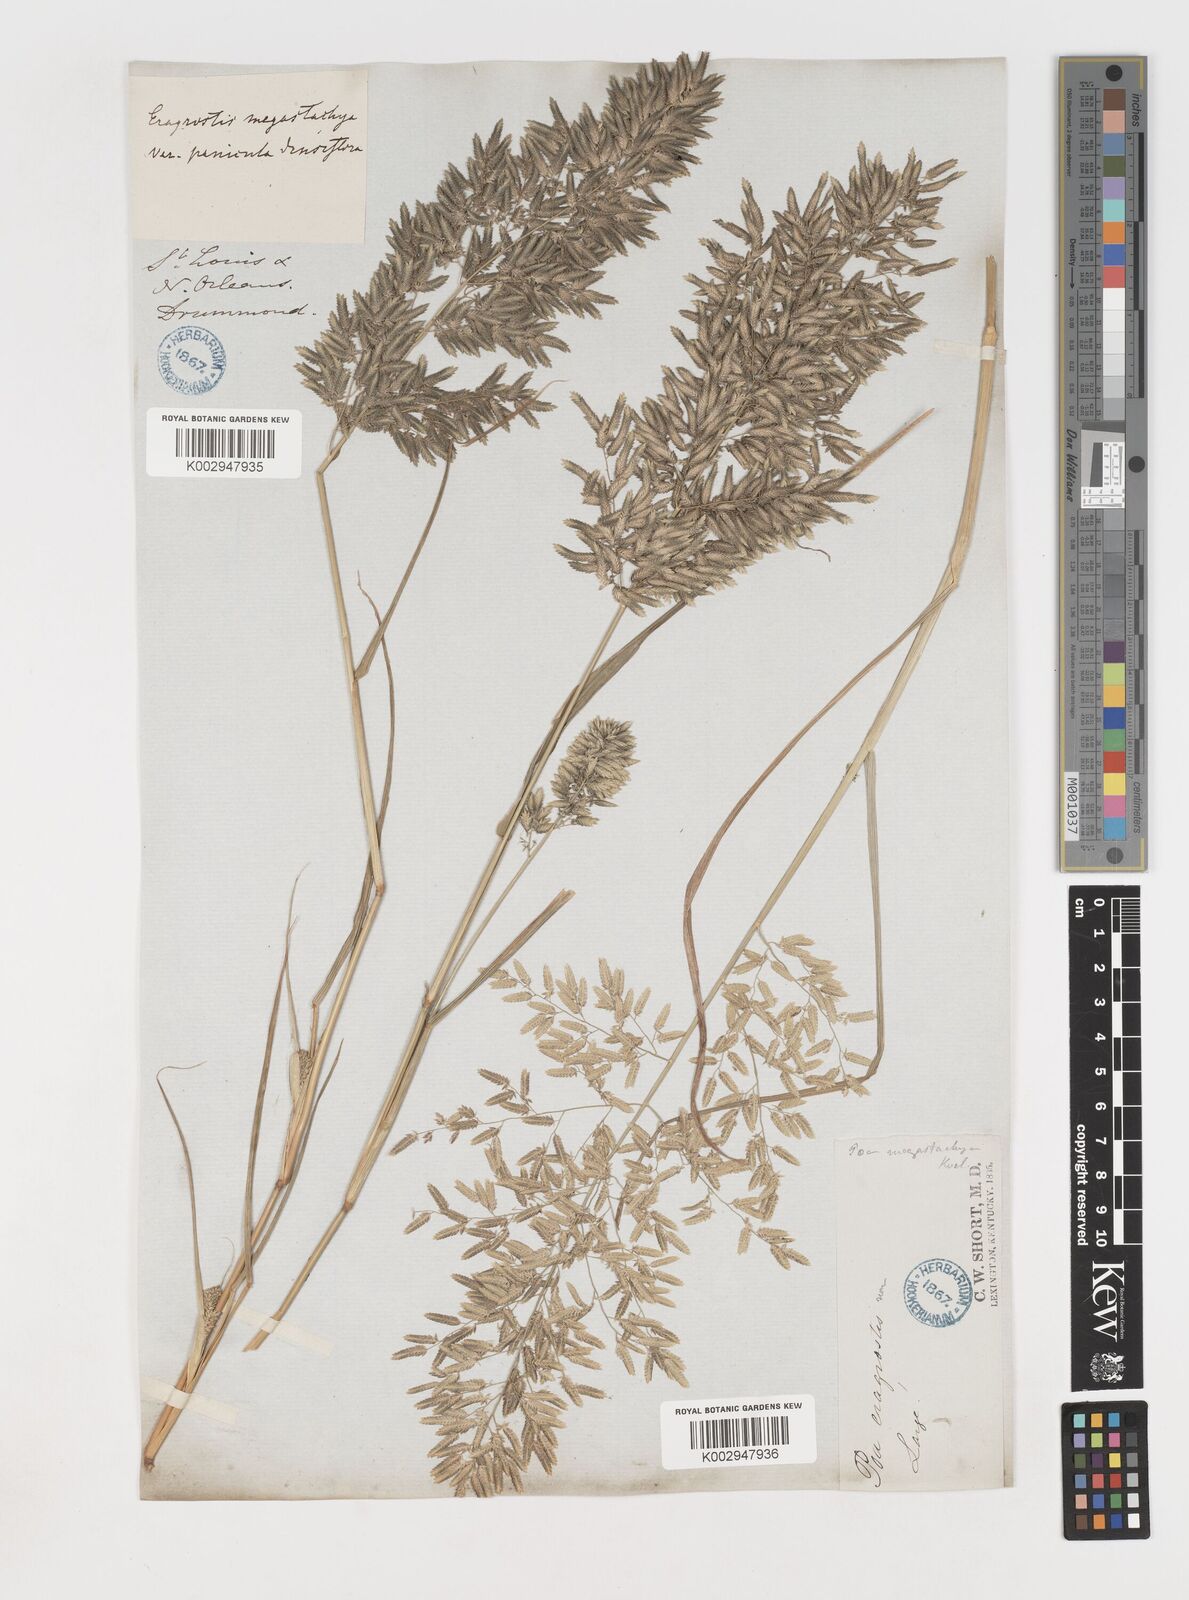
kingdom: Plantae
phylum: Tracheophyta
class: Liliopsida
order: Poales
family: Poaceae
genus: Eragrostis
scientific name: Eragrostis
